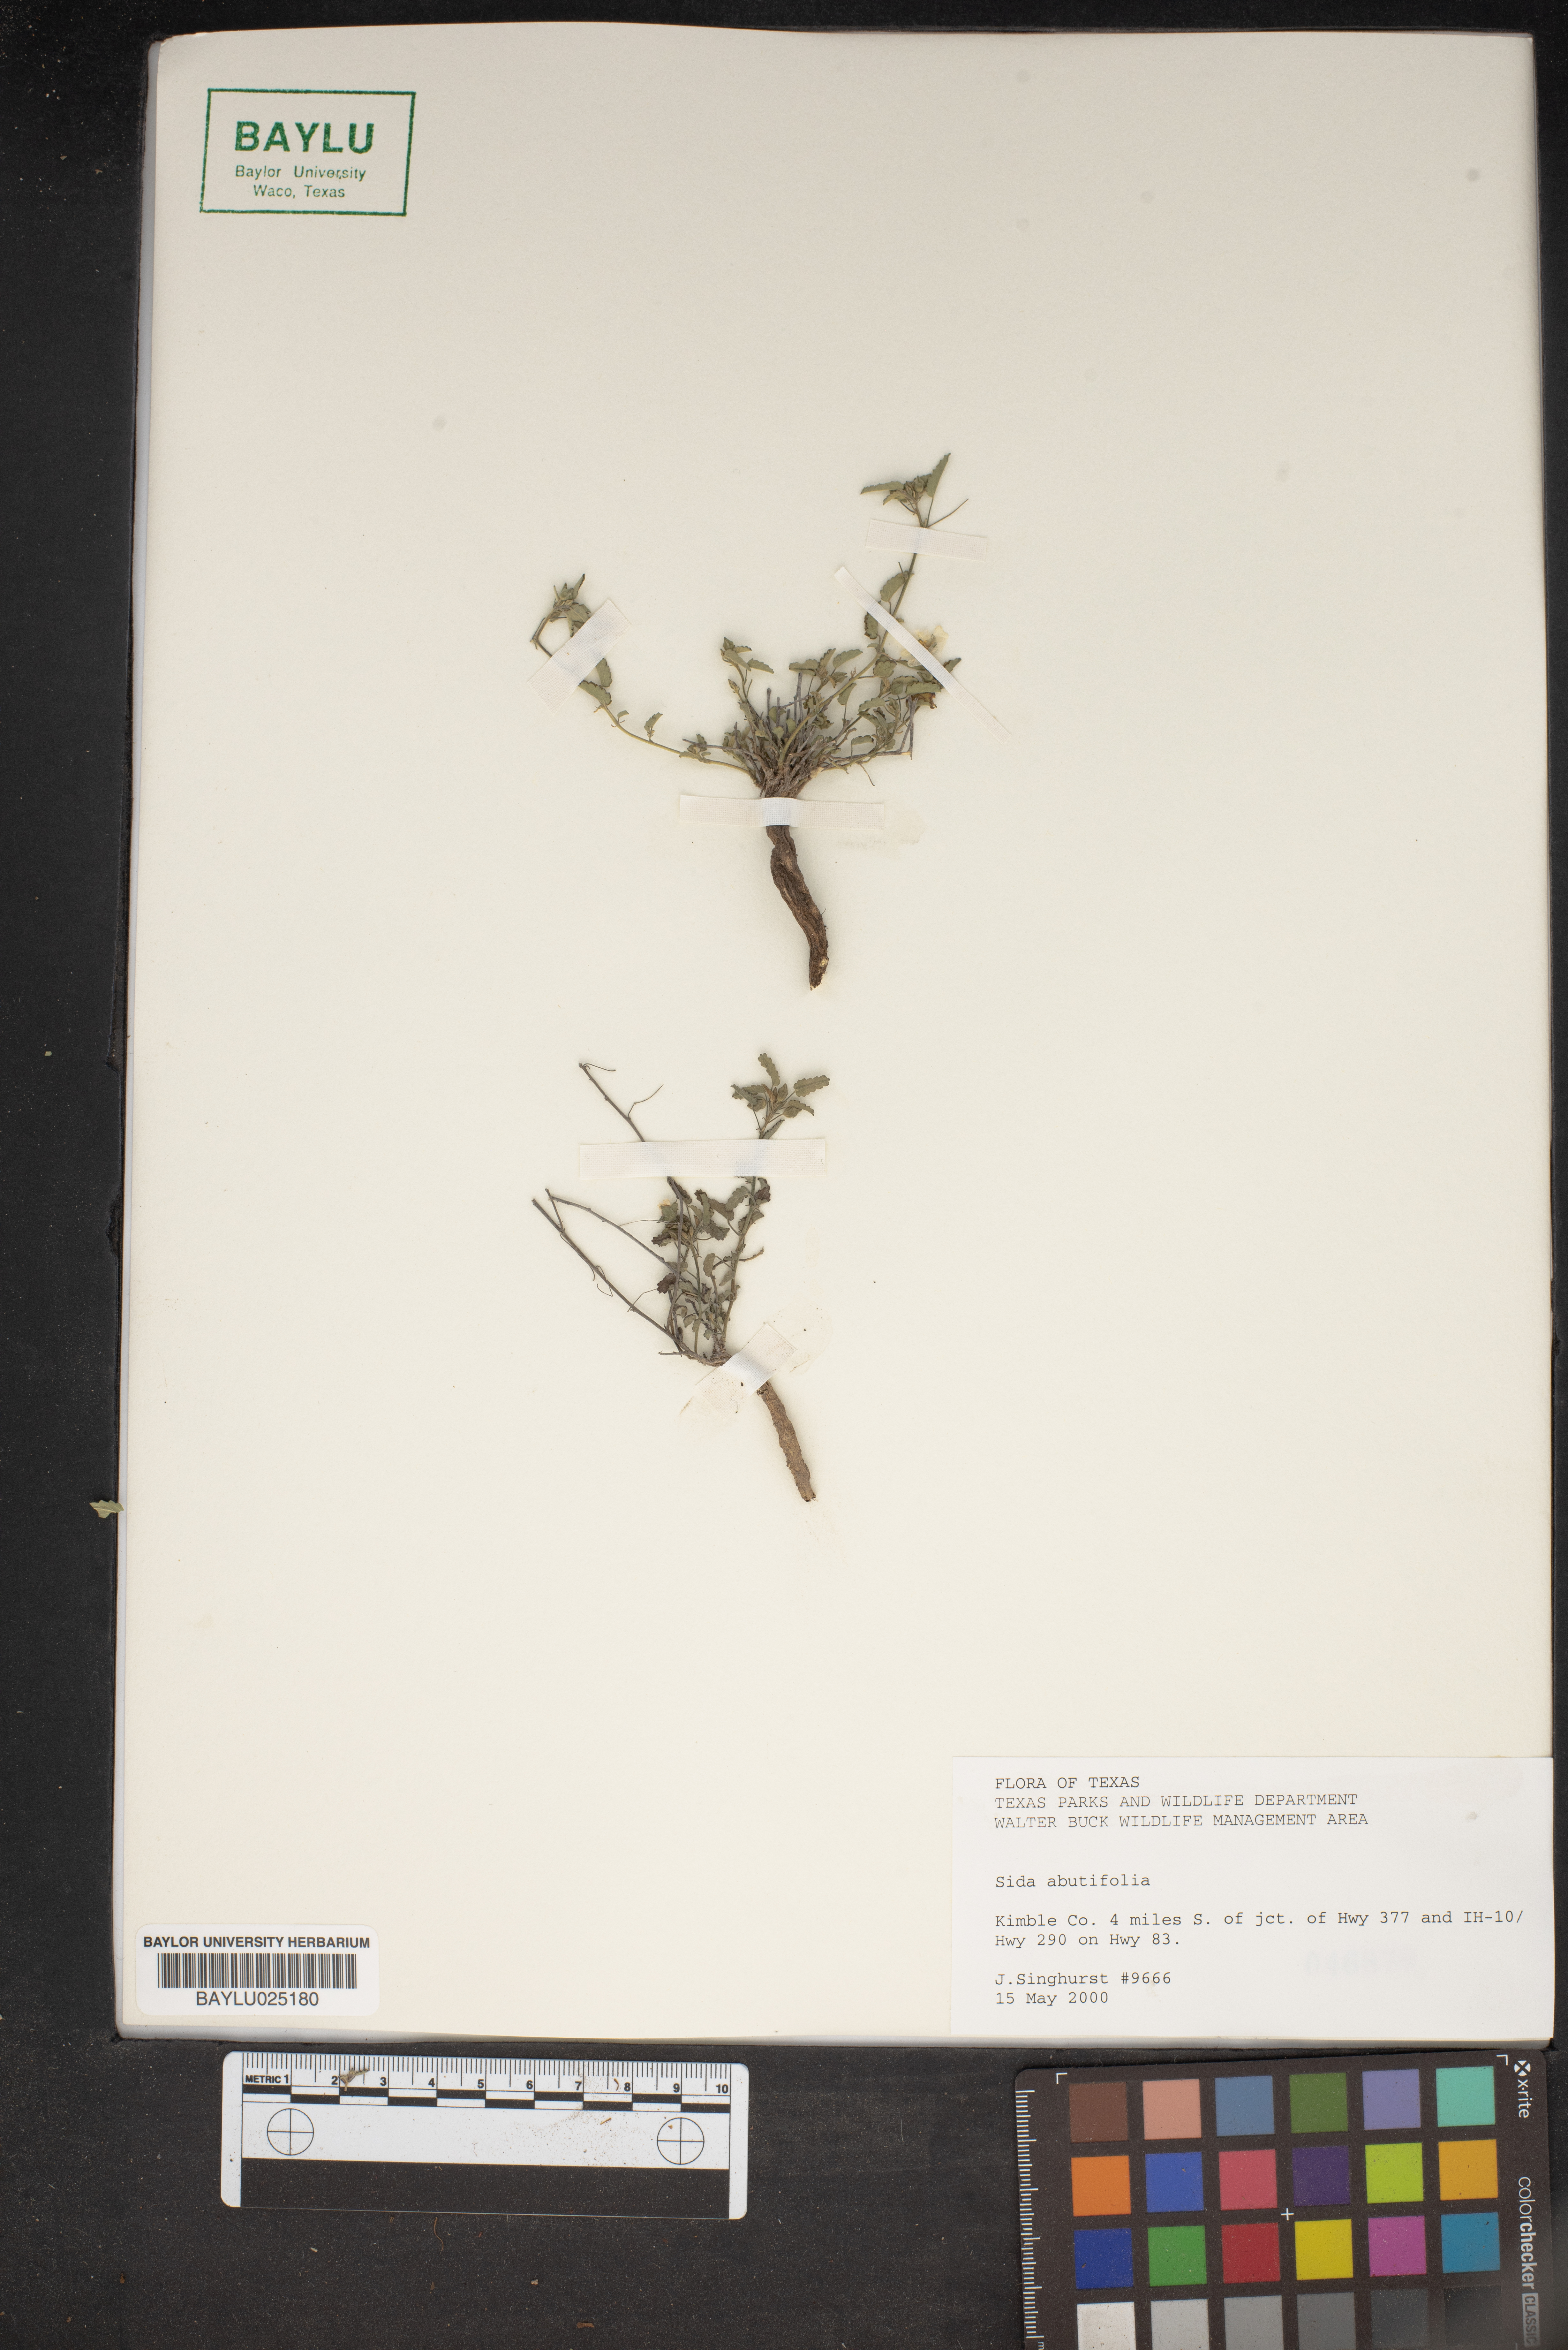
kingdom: Plantae
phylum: Tracheophyta
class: Magnoliopsida
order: Malvales
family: Malvaceae
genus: Sida
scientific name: Sida abutifolia
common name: Spreading fantails
